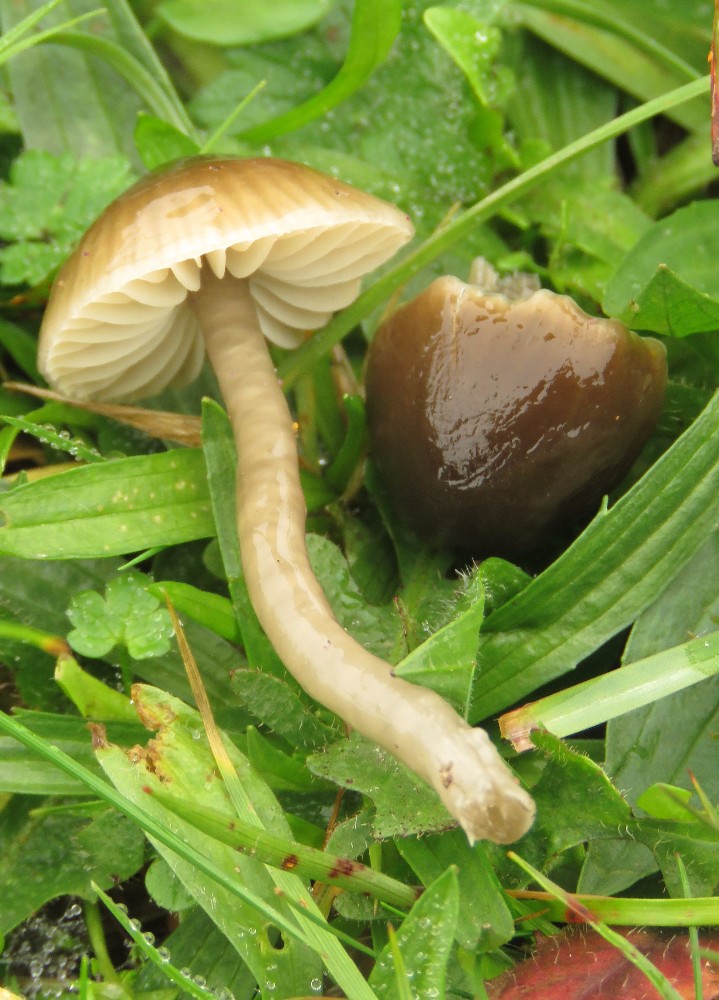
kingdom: Fungi
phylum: Basidiomycota
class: Agaricomycetes
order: Agaricales
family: Hygrophoraceae
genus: Gliophorus
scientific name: Gliophorus irrigatus
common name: slimet vokshat
